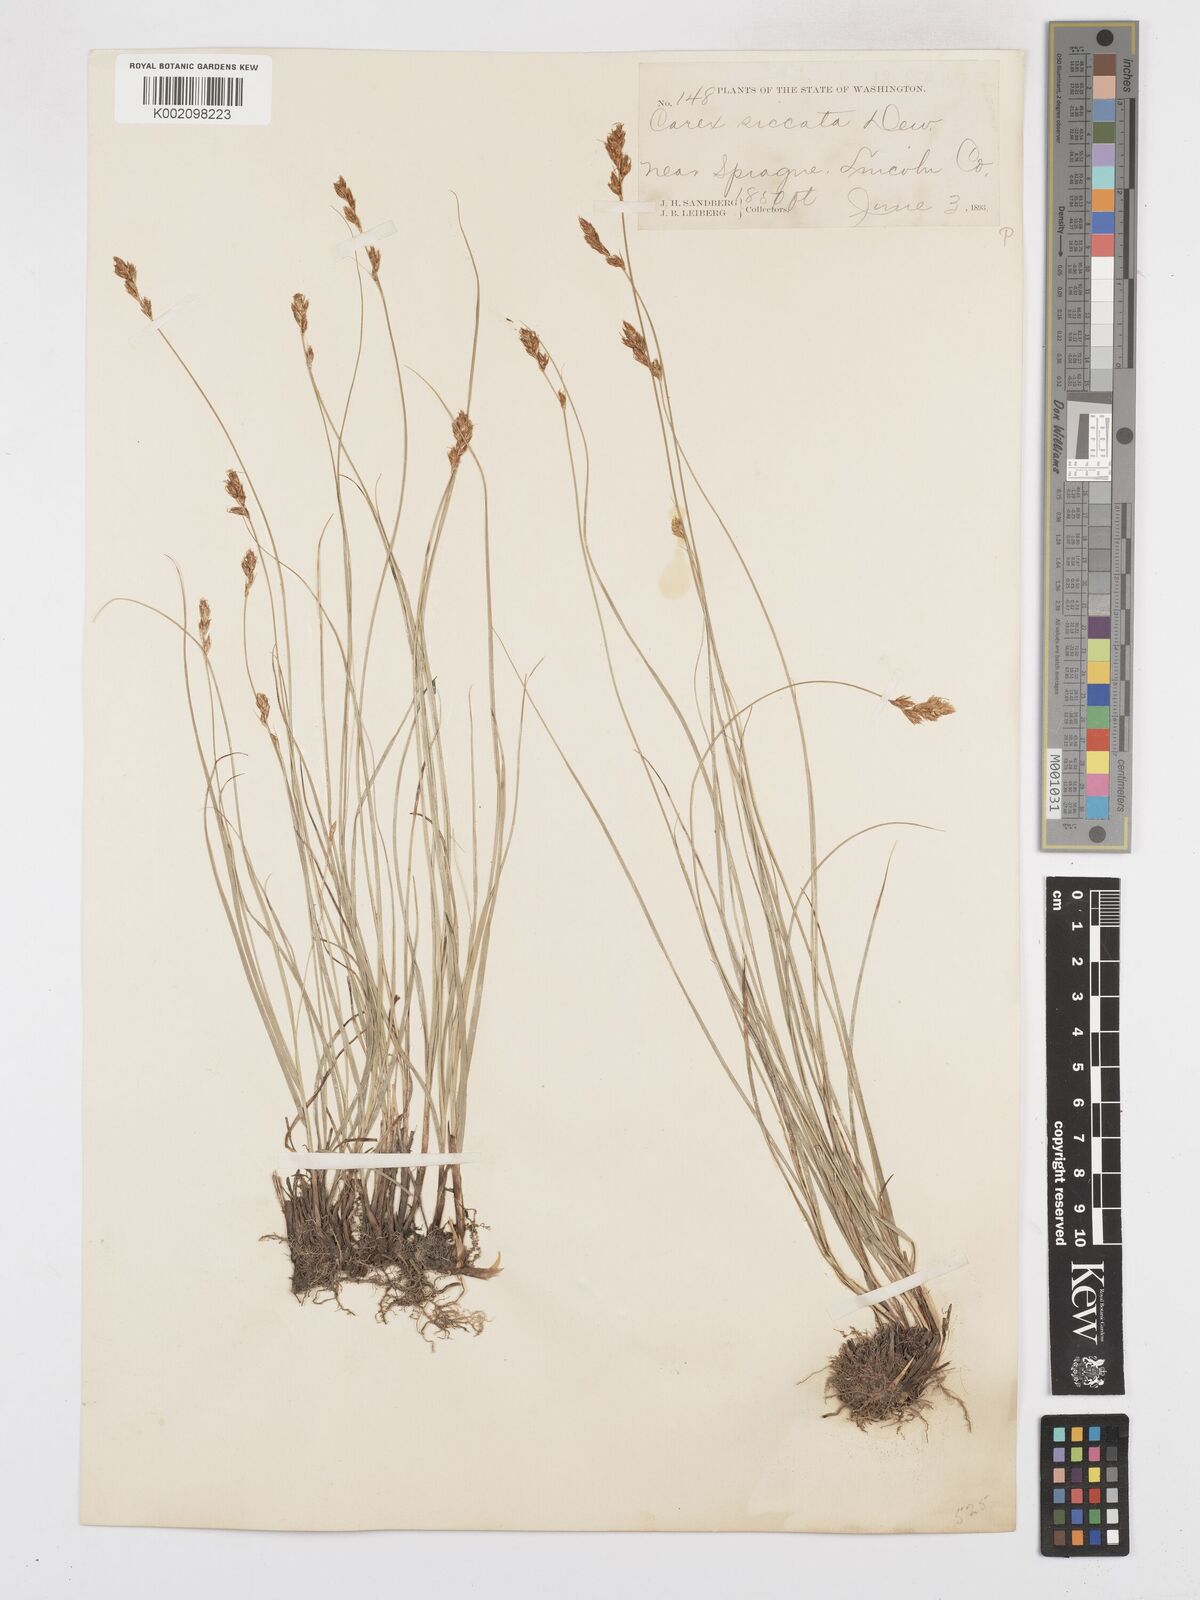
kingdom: Plantae
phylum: Tracheophyta
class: Liliopsida
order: Poales
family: Cyperaceae
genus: Carex
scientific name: Carex foenea
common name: Bronze sedge
